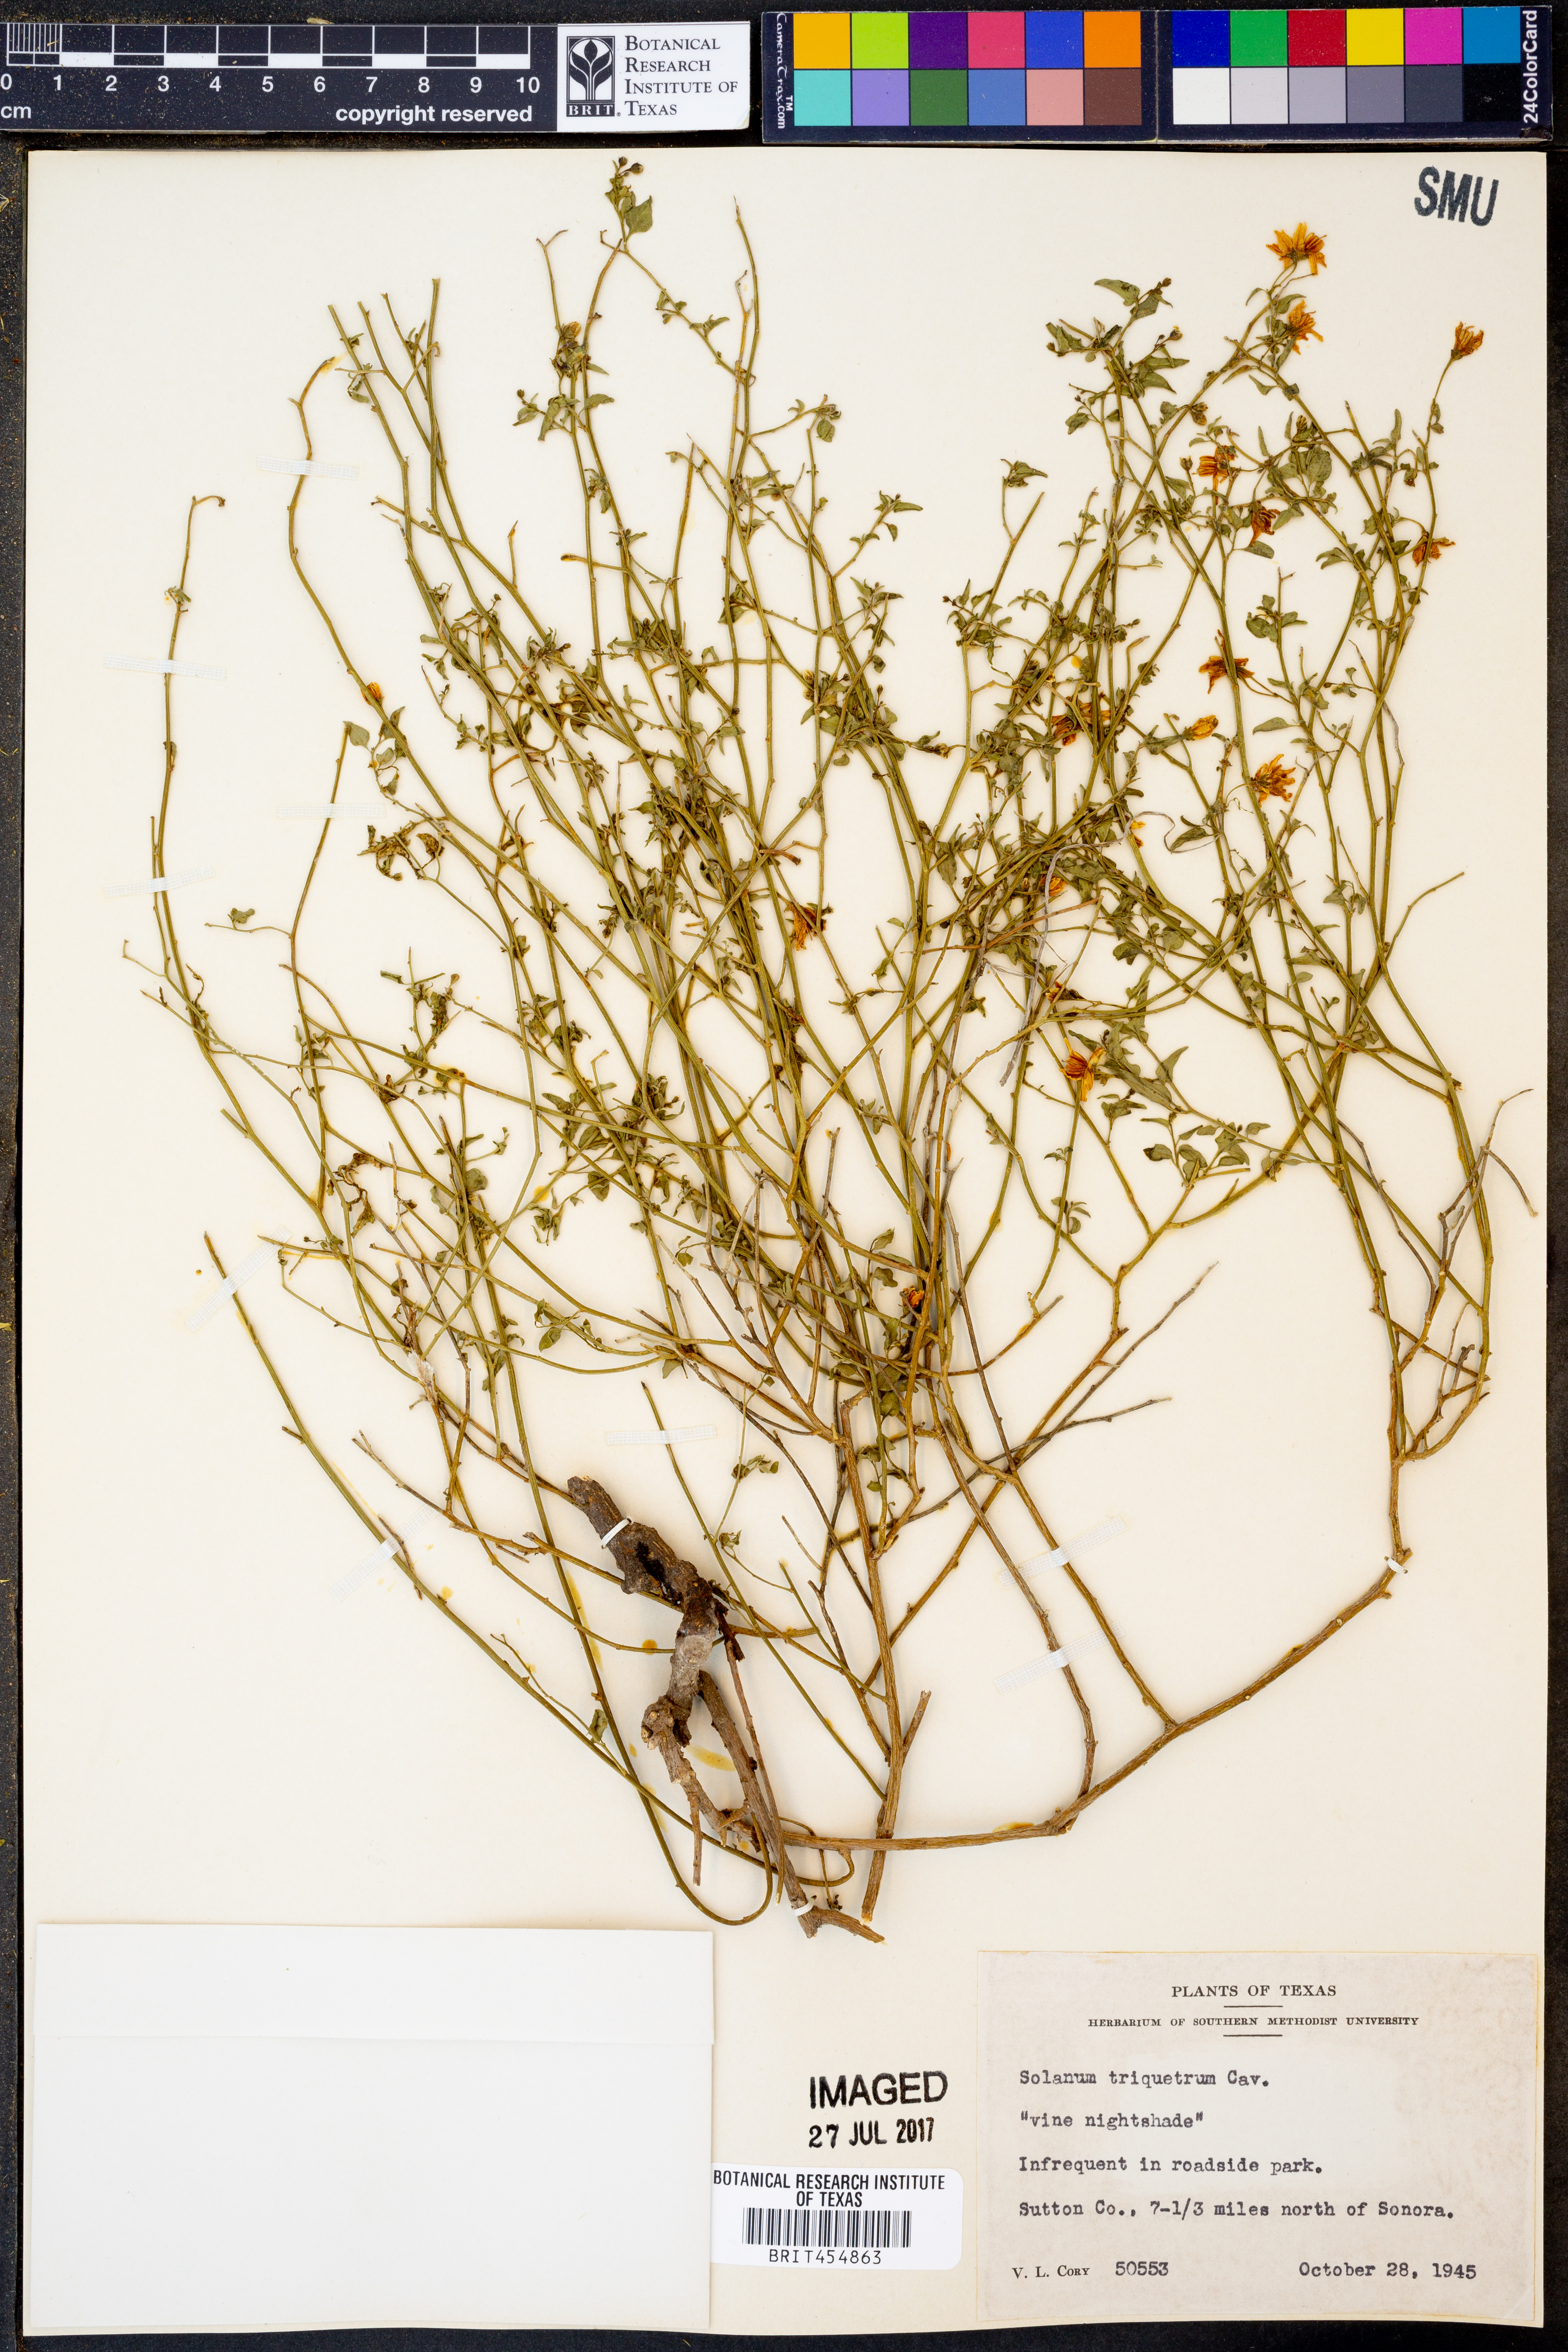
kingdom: Plantae
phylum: Tracheophyta
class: Magnoliopsida
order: Solanales
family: Solanaceae
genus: Solanum
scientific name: Solanum triquetrum
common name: Texas nightshade
